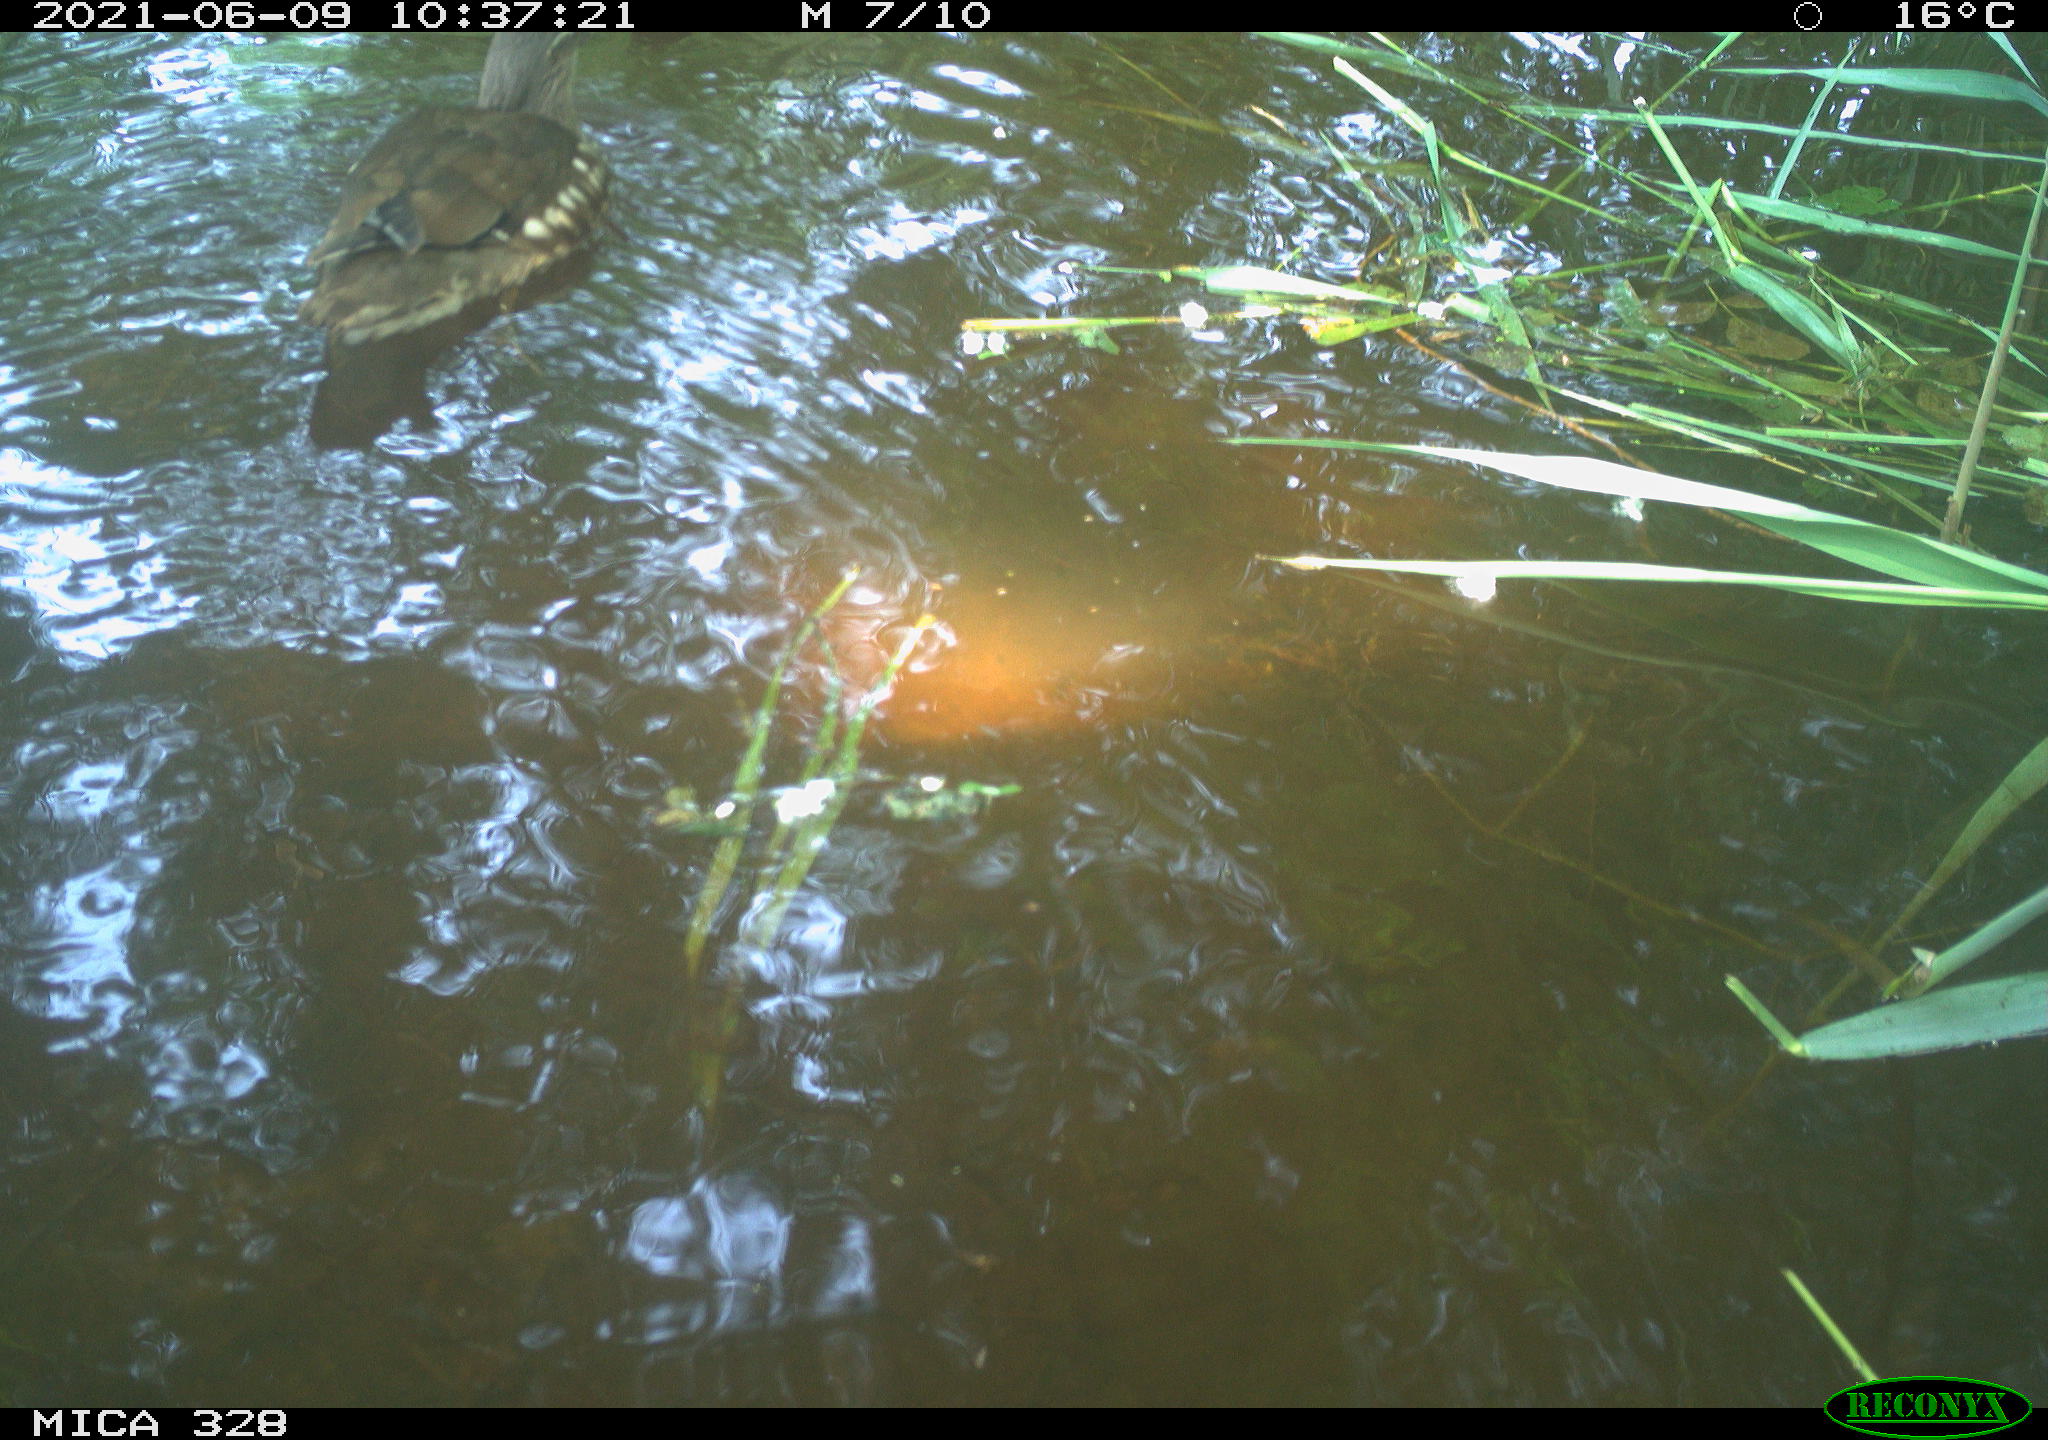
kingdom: Animalia
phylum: Chordata
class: Aves
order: Anseriformes
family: Anatidae
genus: Aix
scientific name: Aix galericulata
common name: Mandarin duck
